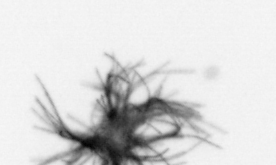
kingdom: Bacteria
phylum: Cyanobacteria
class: Cyanobacteriia
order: Cyanobacteriales
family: Microcoleaceae
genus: Trichodesmium
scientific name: Trichodesmium
